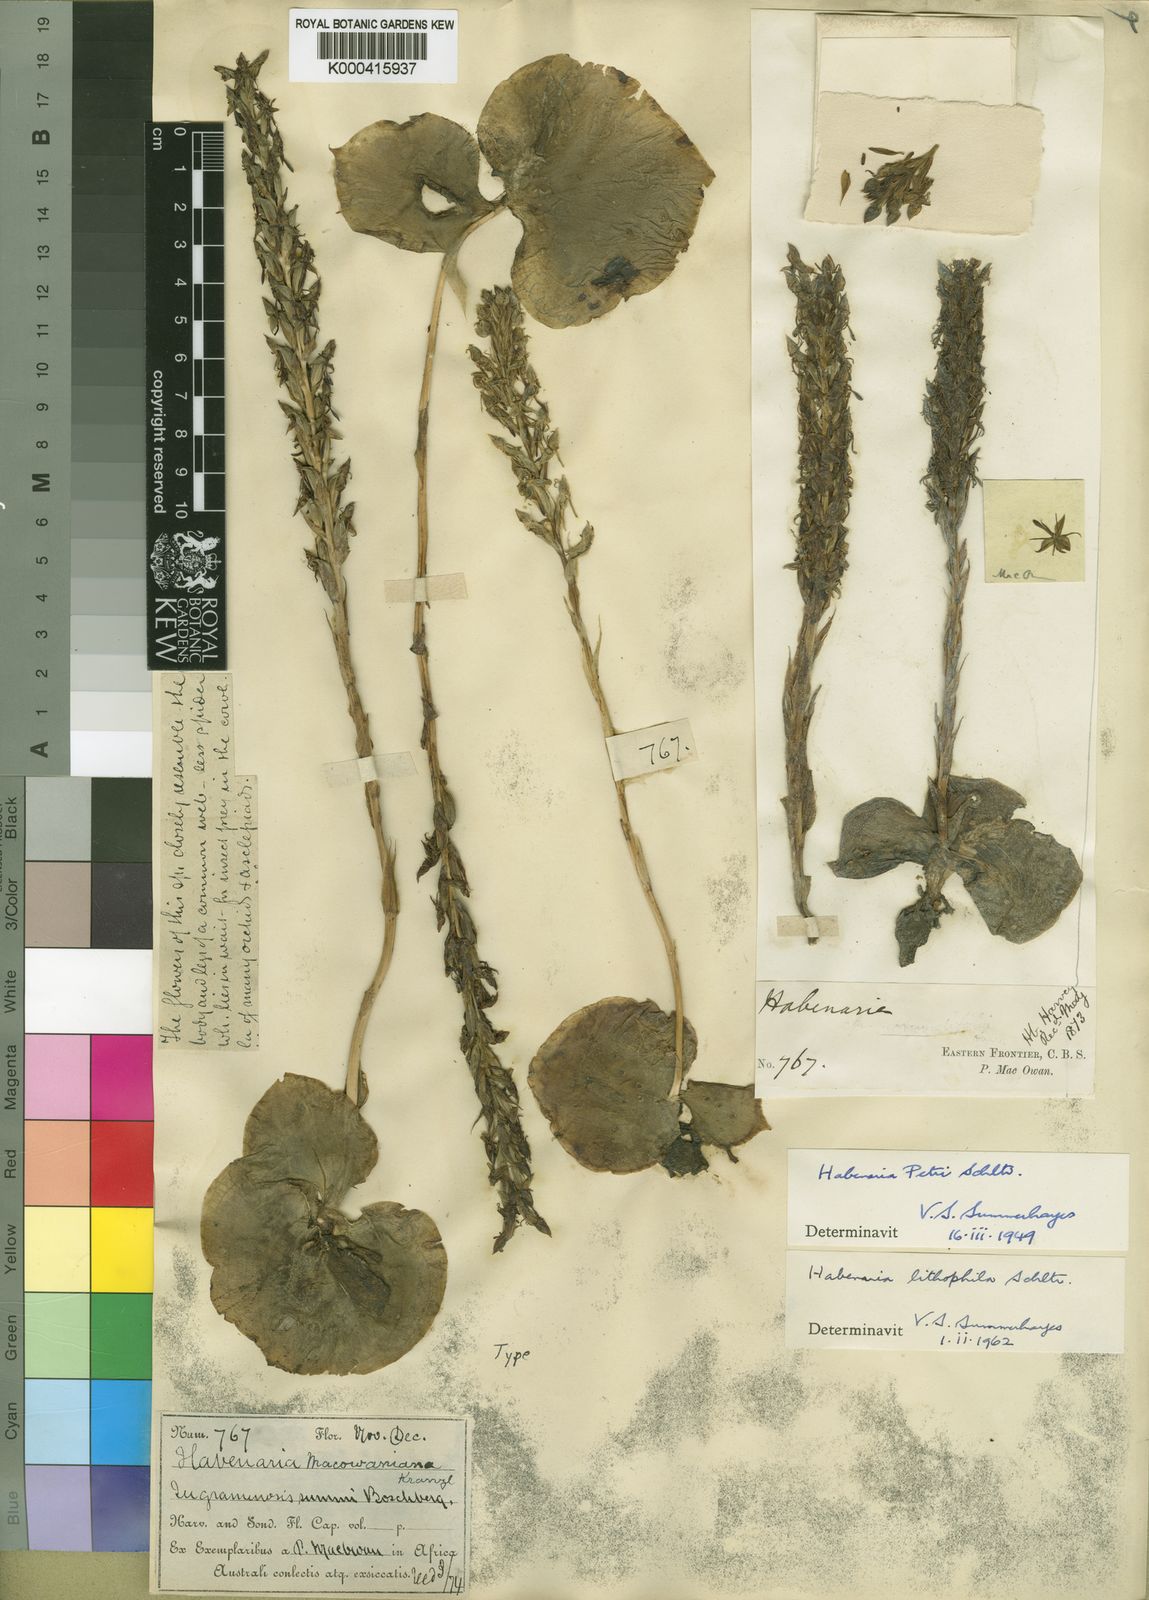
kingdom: Plantae
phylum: Tracheophyta
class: Liliopsida
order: Asparagales
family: Orchidaceae
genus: Habenaria
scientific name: Habenaria lithophila
